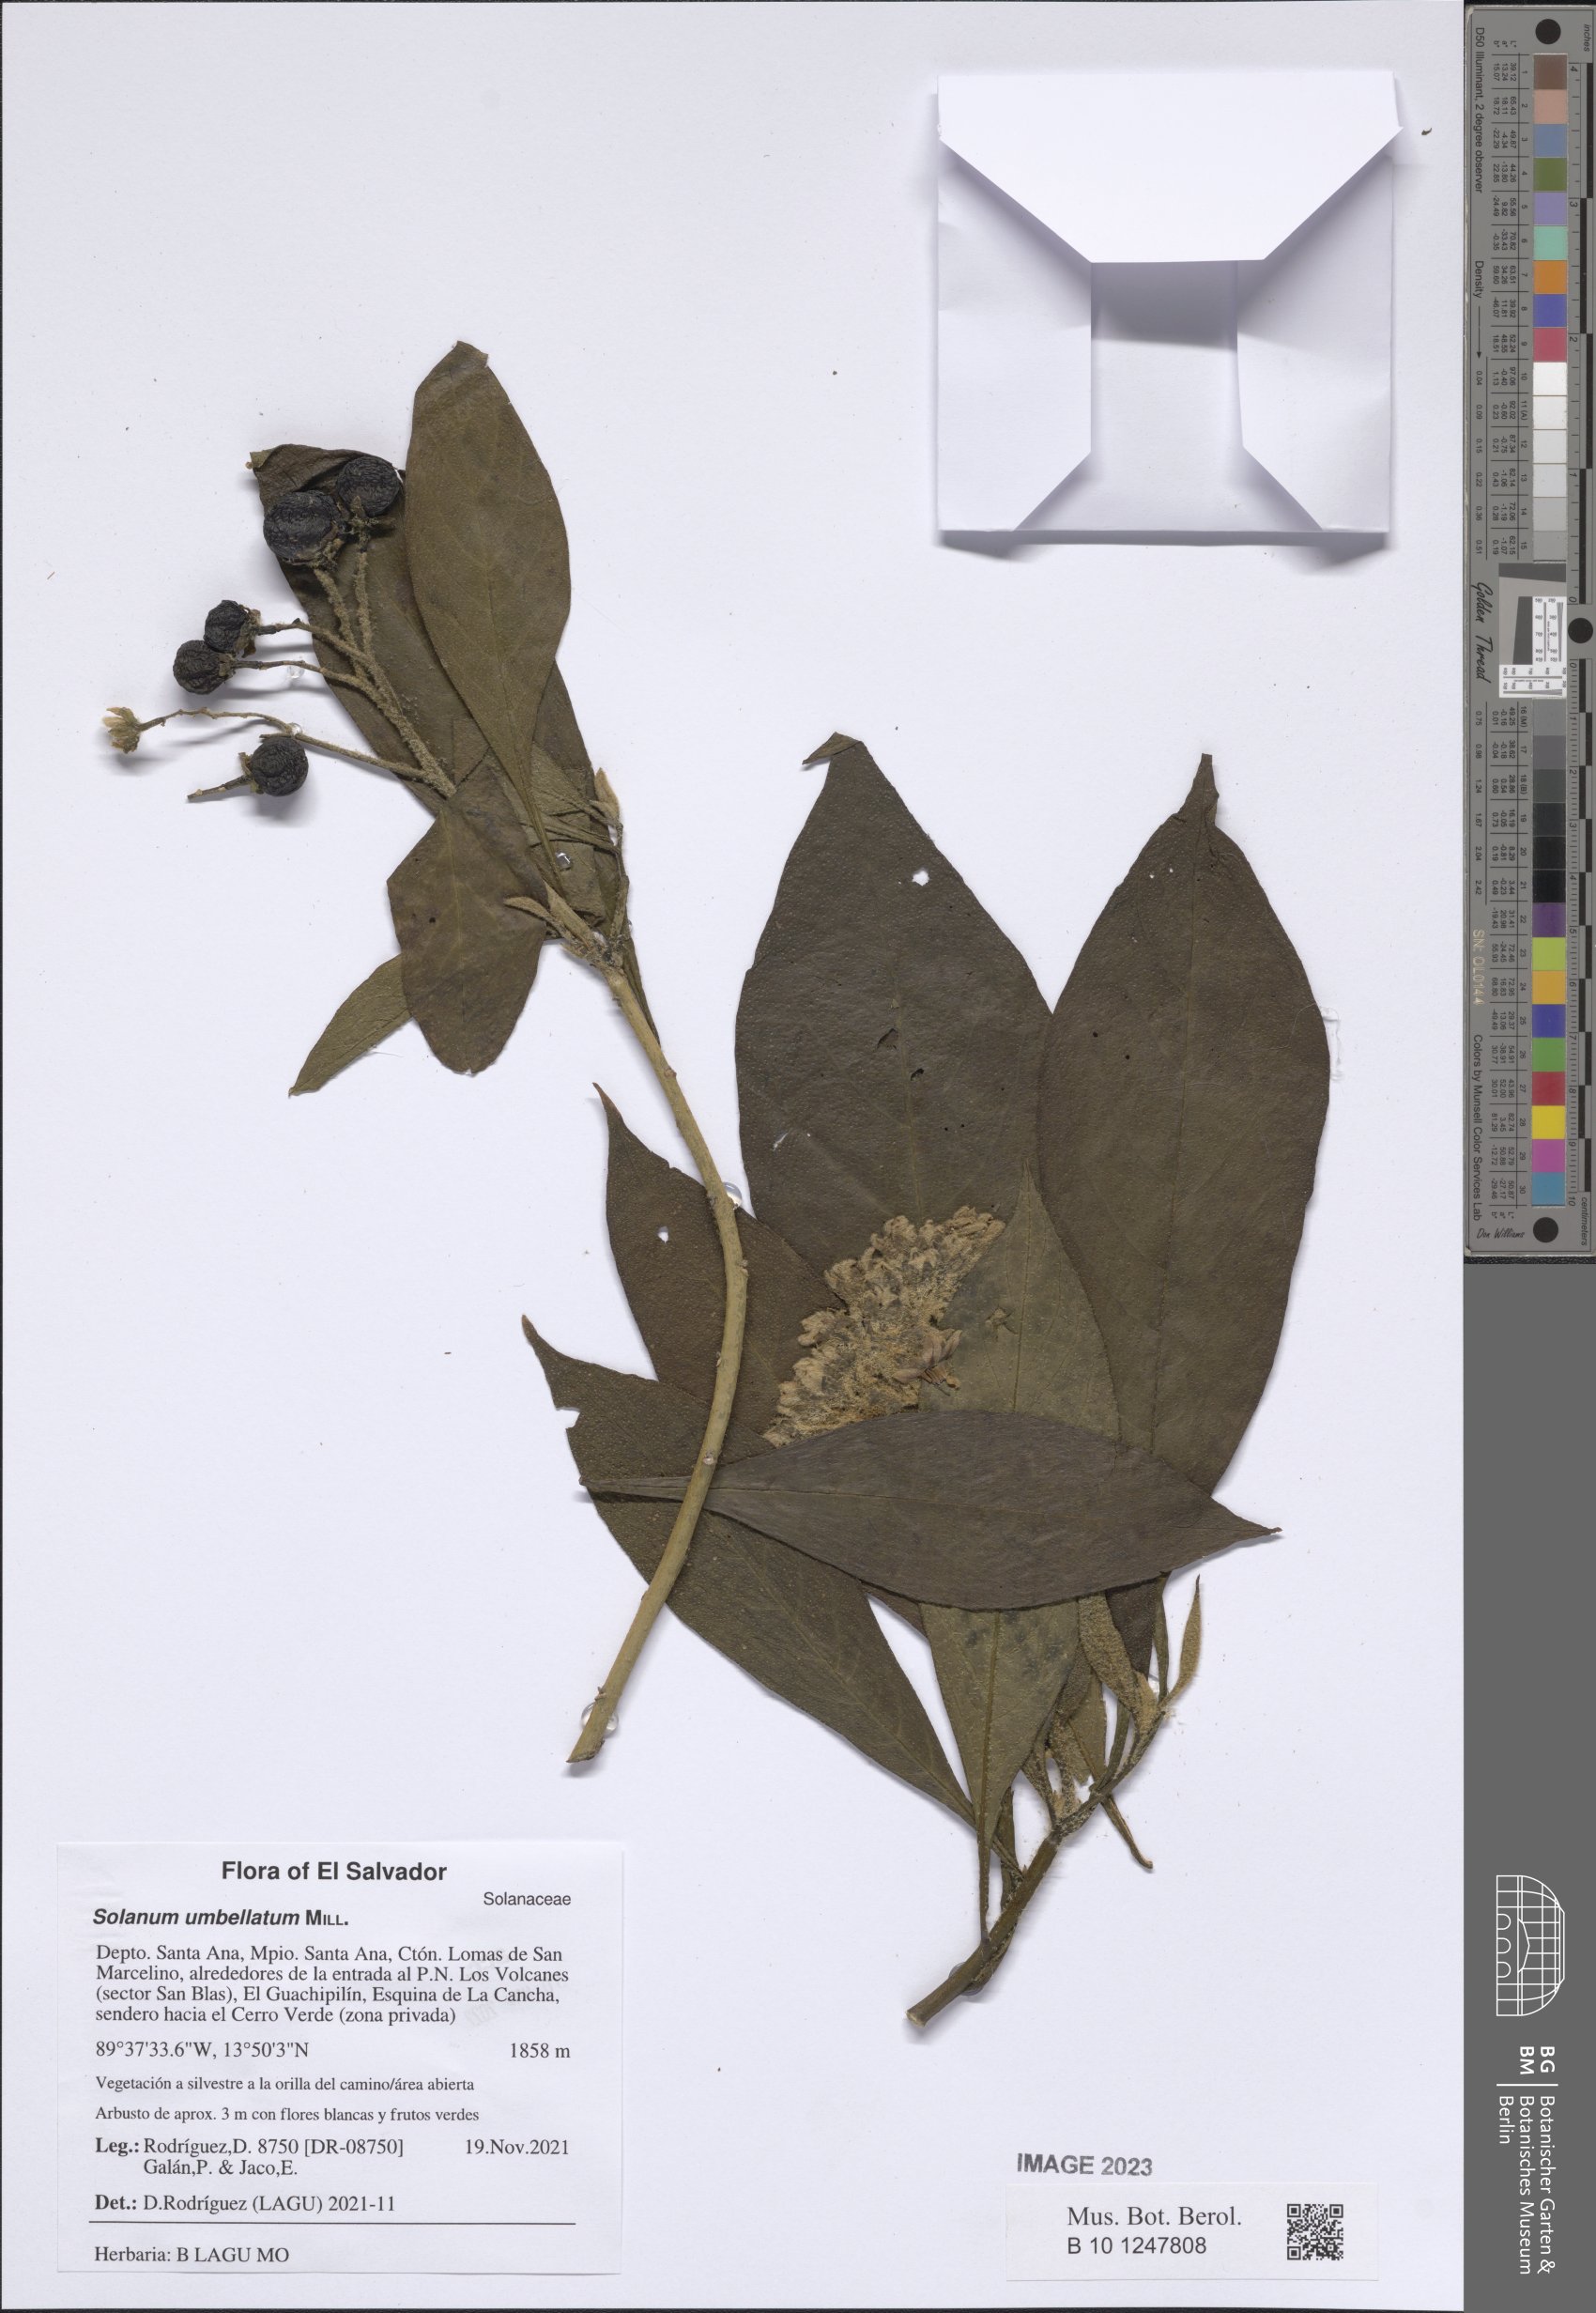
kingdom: Plantae
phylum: Tracheophyta
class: Magnoliopsida
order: Solanales
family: Solanaceae
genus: Solanum
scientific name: Solanum umbellatum
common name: Nightshade
